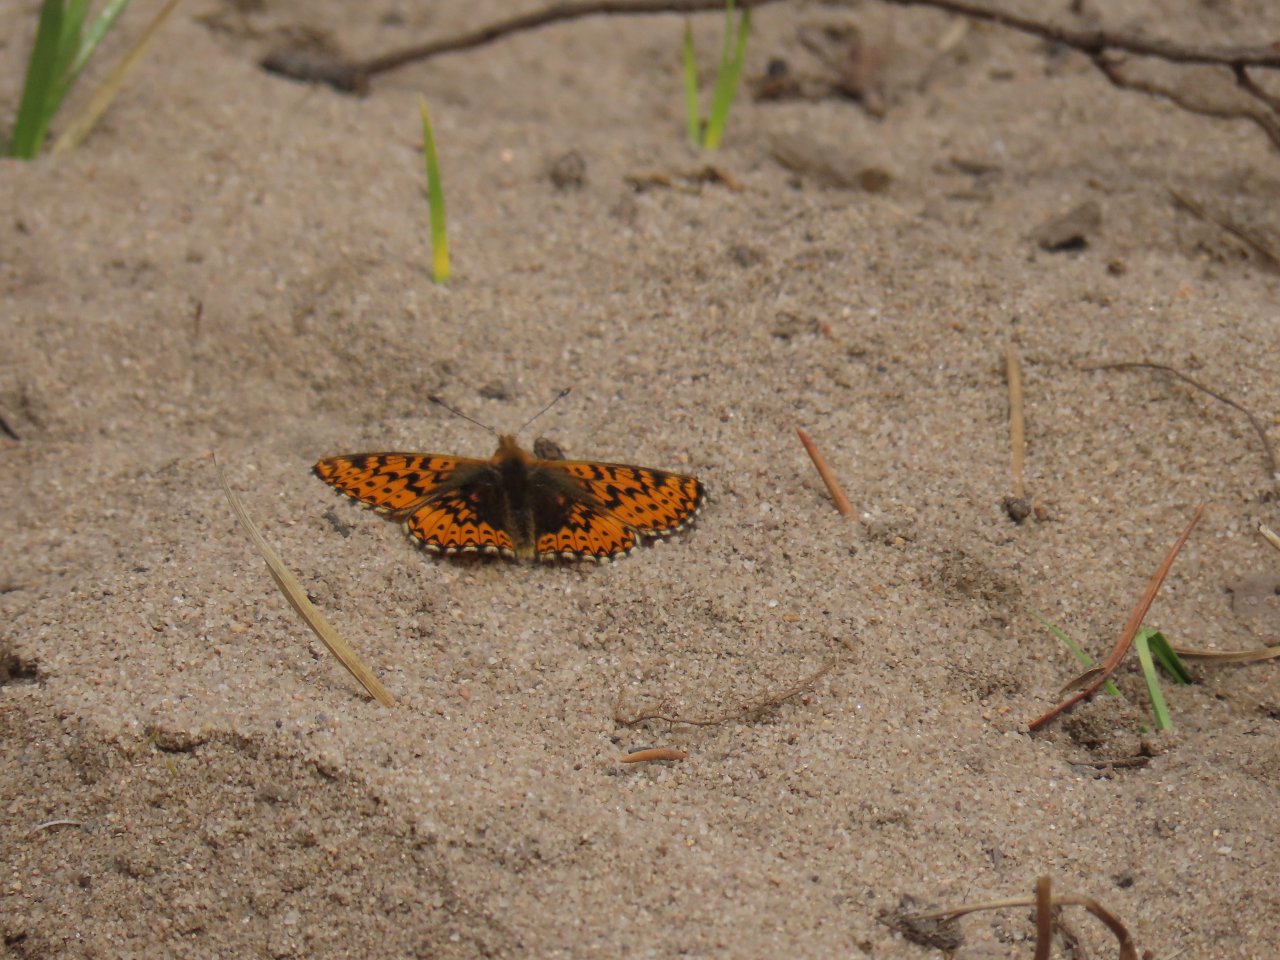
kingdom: Animalia
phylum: Arthropoda
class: Insecta
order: Lepidoptera
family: Nymphalidae
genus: Boloria
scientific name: Boloria freija
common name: Freija Fritillary
